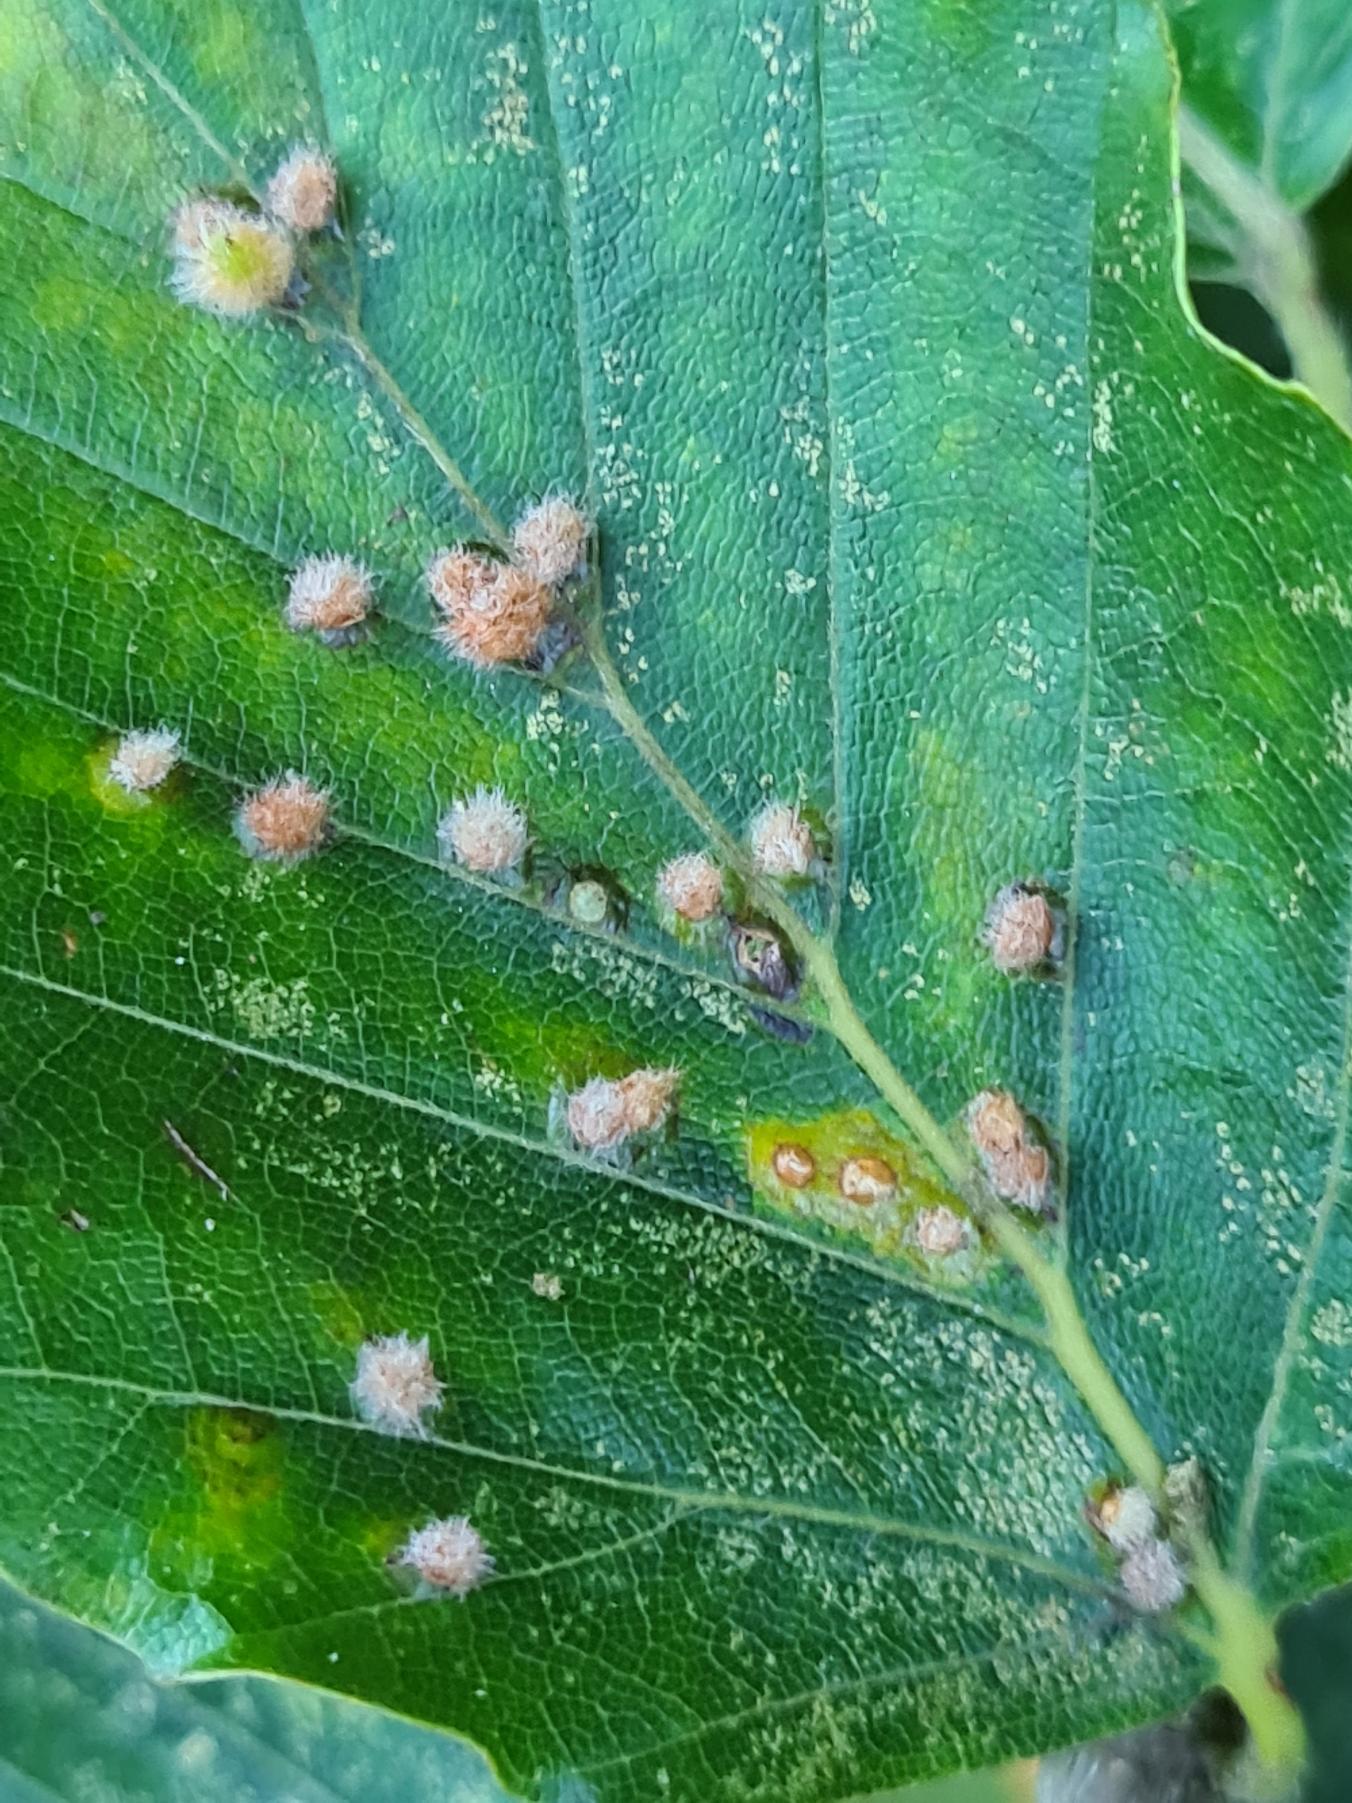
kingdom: Animalia
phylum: Arthropoda
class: Insecta
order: Diptera
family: Cecidomyiidae
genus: Hartigiola
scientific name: Hartigiola annulipes
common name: Skovtroldegalmyg
